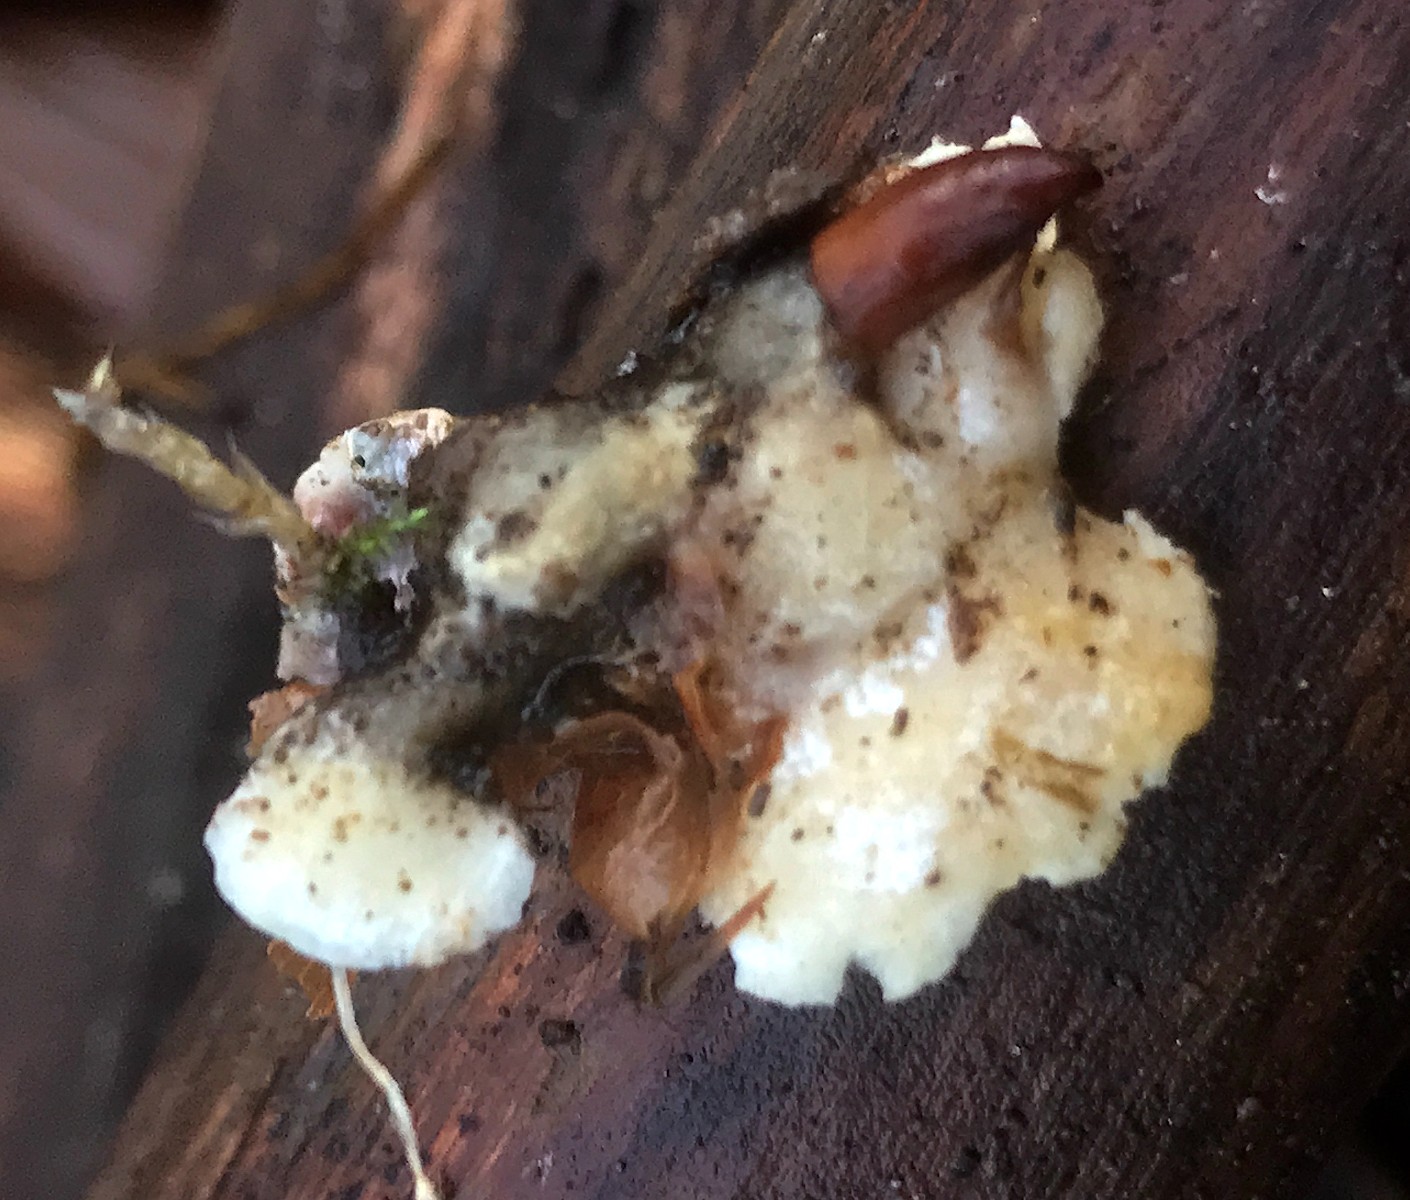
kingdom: Fungi
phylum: Basidiomycota
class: Agaricomycetes
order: Polyporales
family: Incrustoporiaceae
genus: Skeletocutis
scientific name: Skeletocutis nemoralis
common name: stor krystalporesvamp
